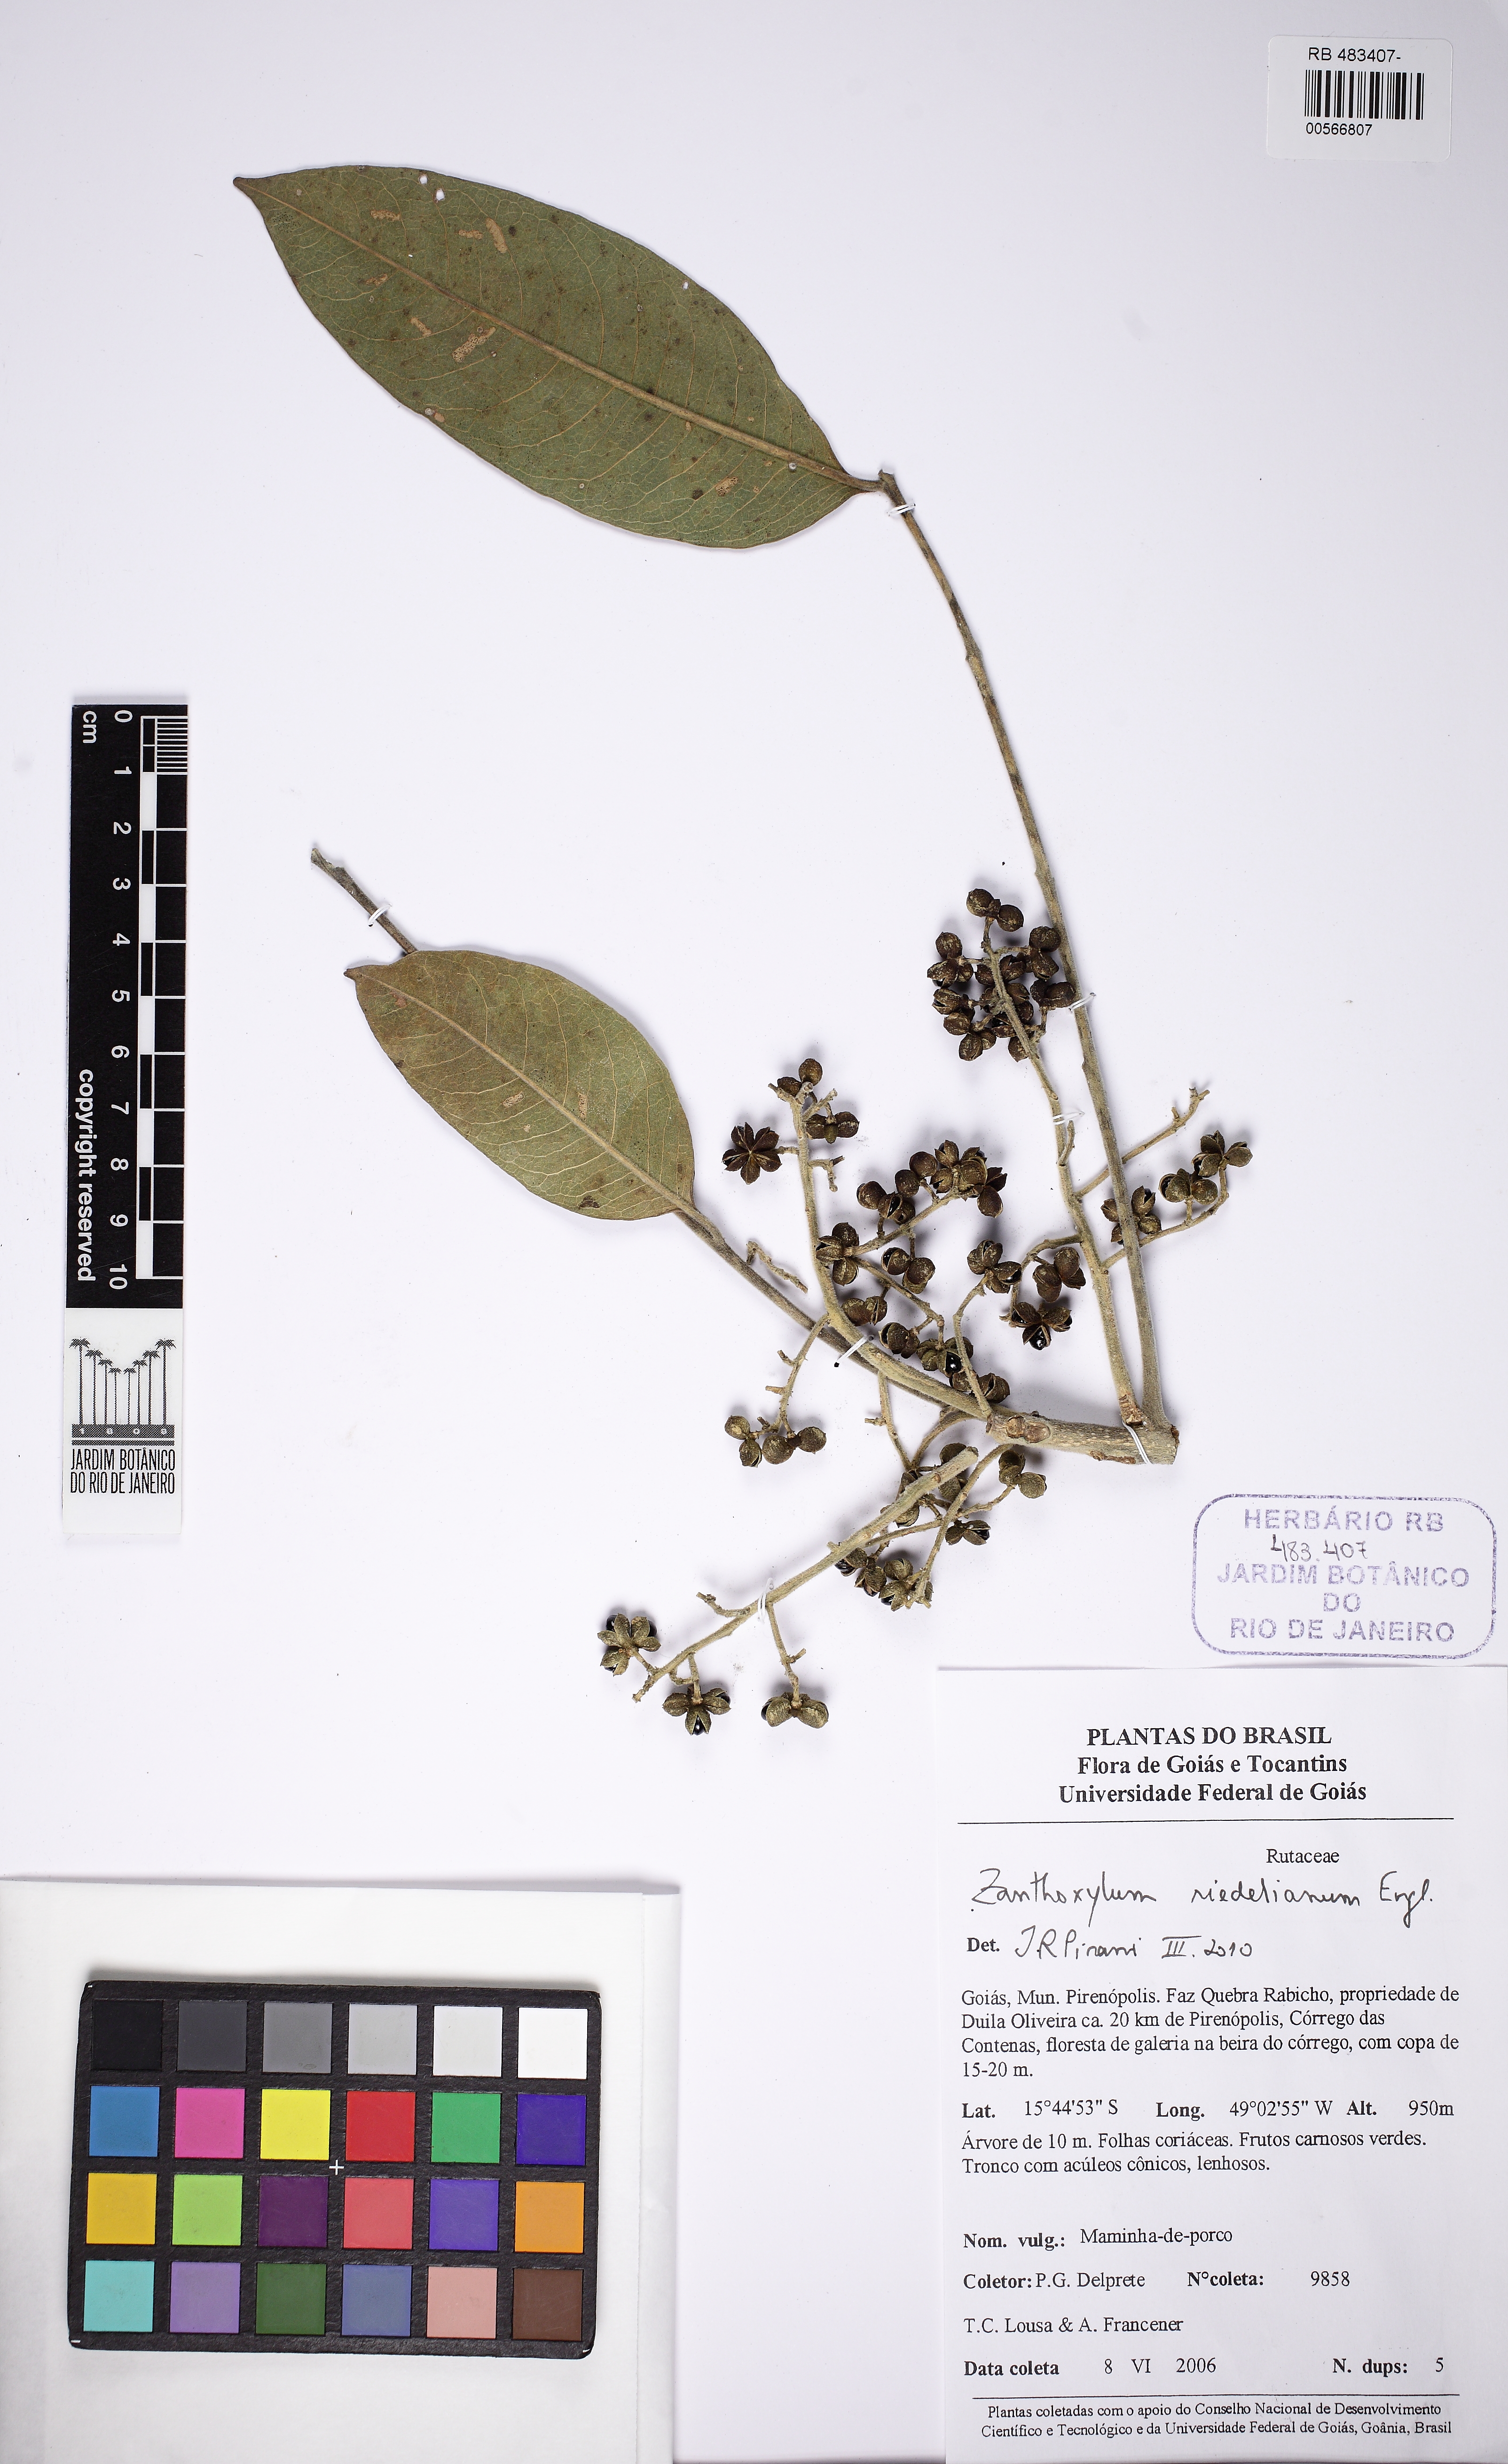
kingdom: Plantae
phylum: Tracheophyta
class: Magnoliopsida
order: Sapindales
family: Rutaceae
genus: Zanthoxylum
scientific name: Zanthoxylum riedelianum
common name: White copal
